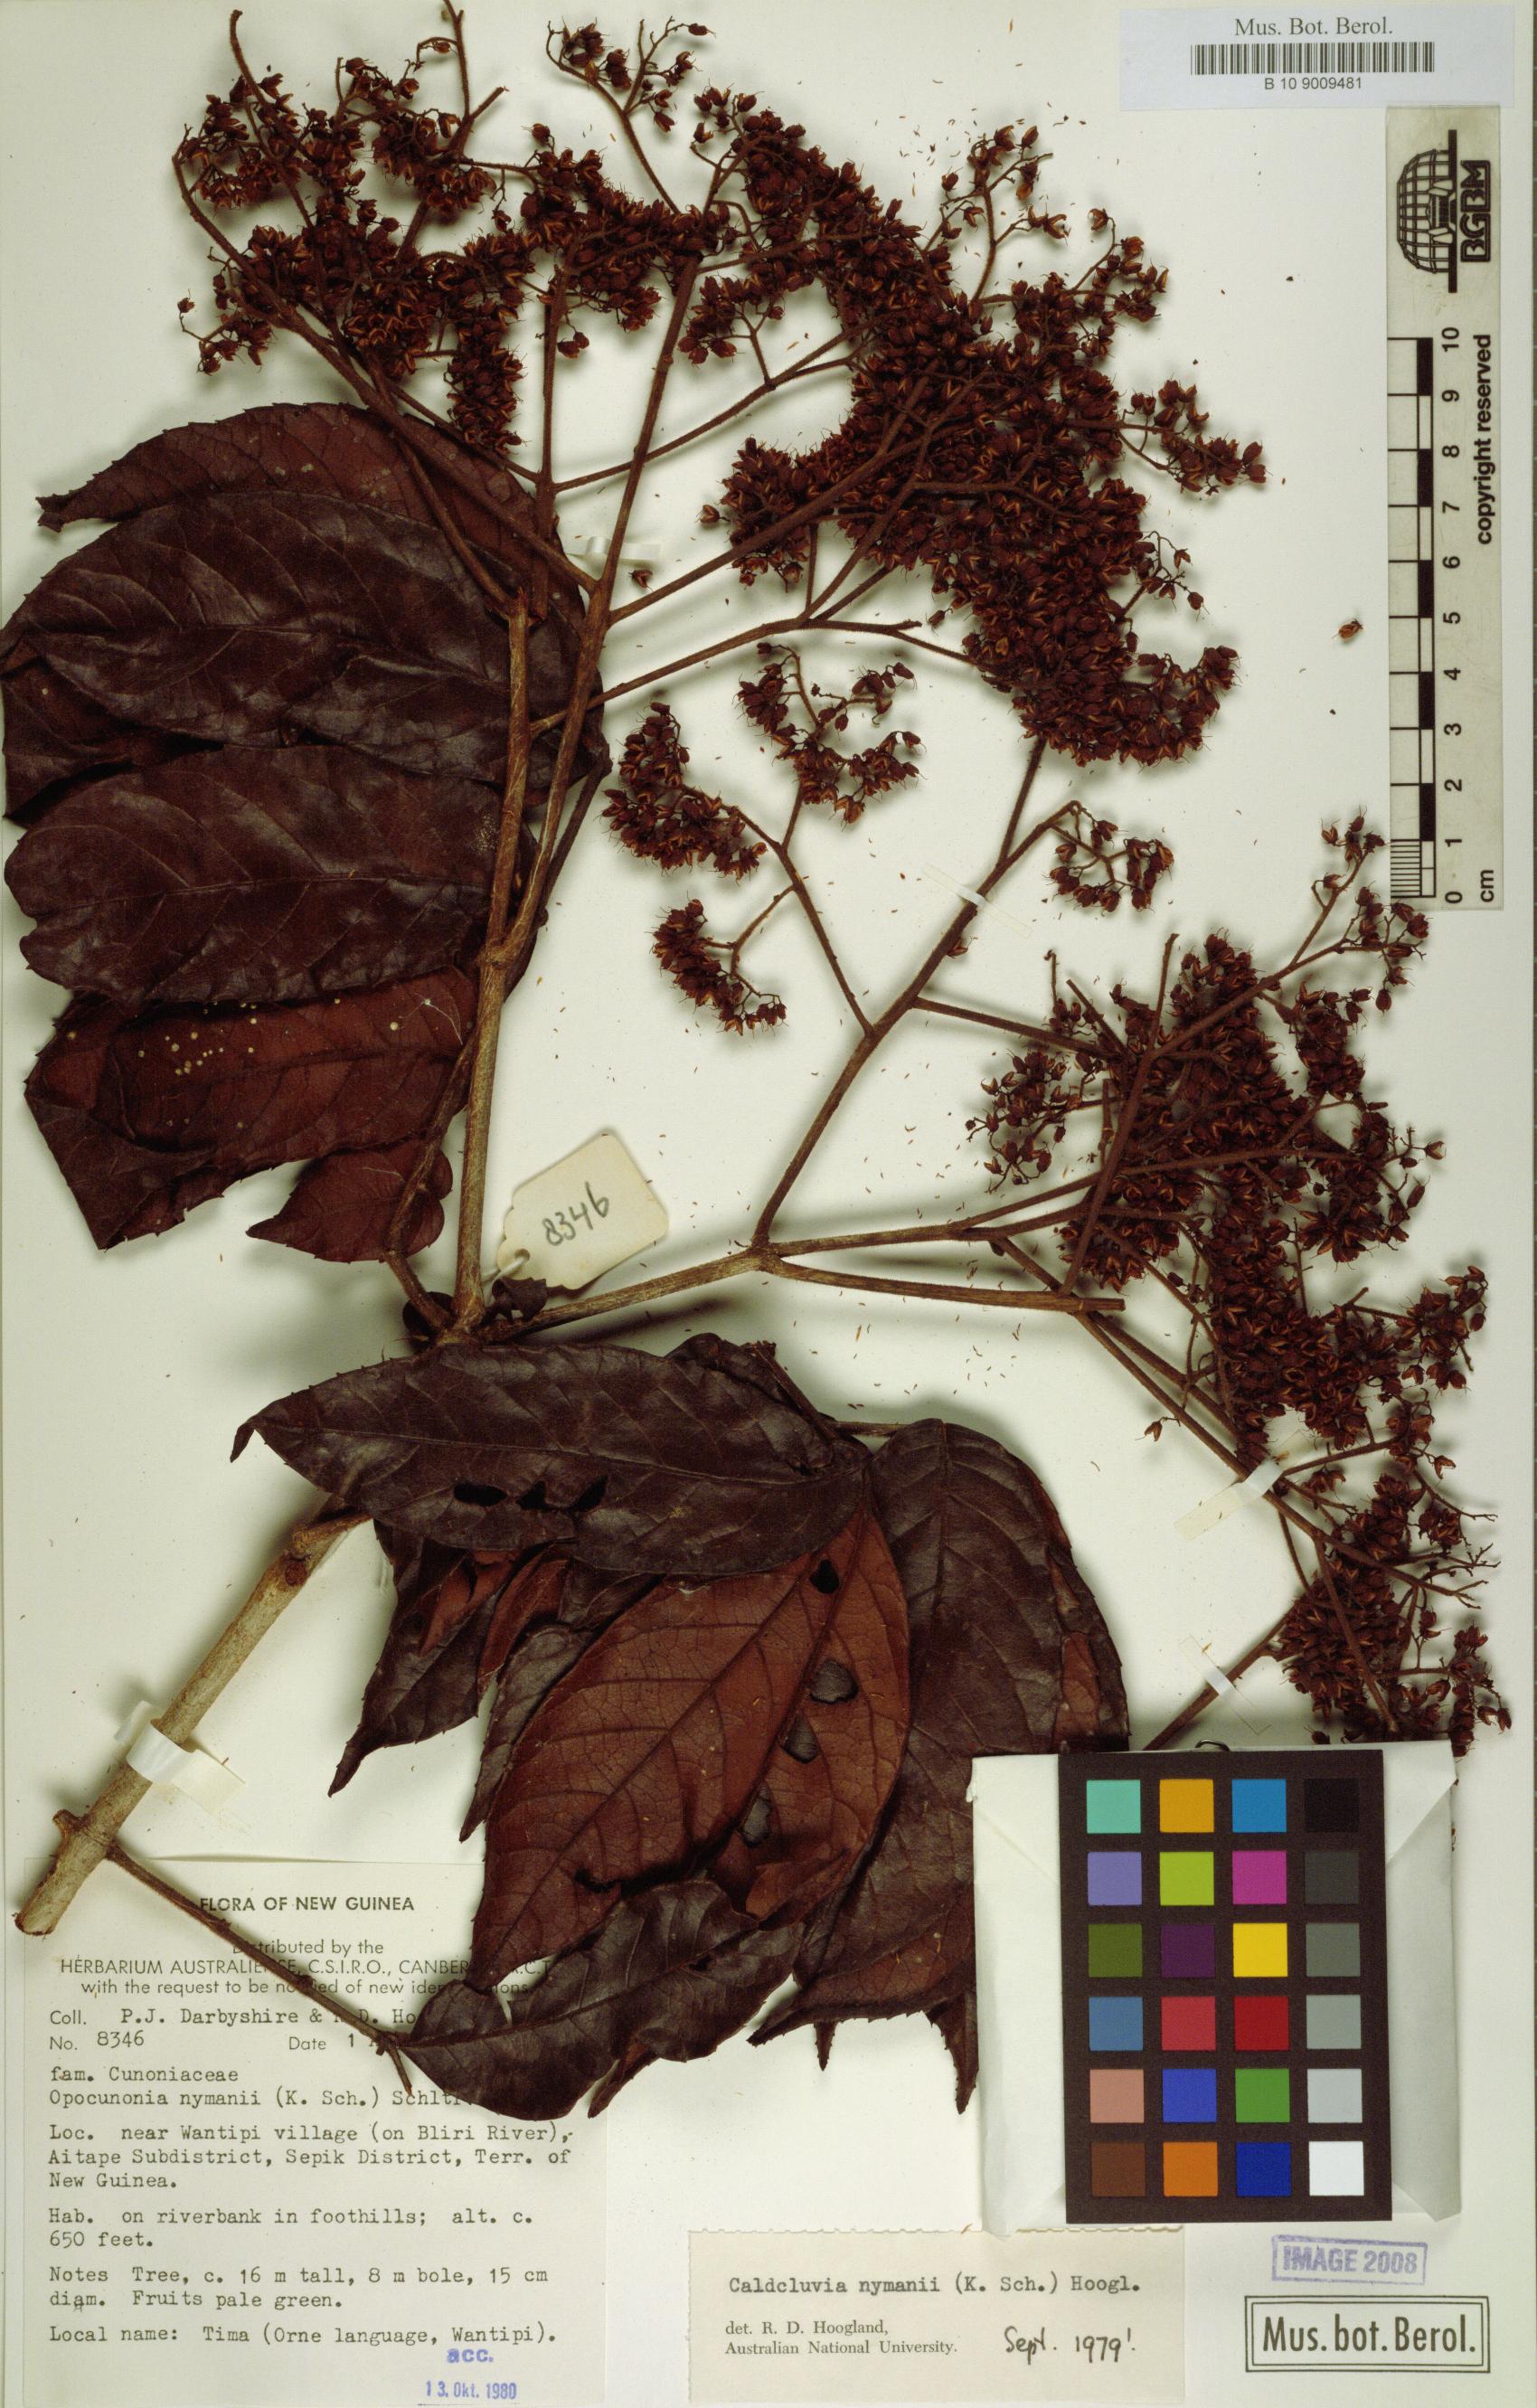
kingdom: Plantae
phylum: Tracheophyta
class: Magnoliopsida
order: Oxalidales
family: Cunoniaceae
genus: Opocunonia
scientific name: Opocunonia nymanii
